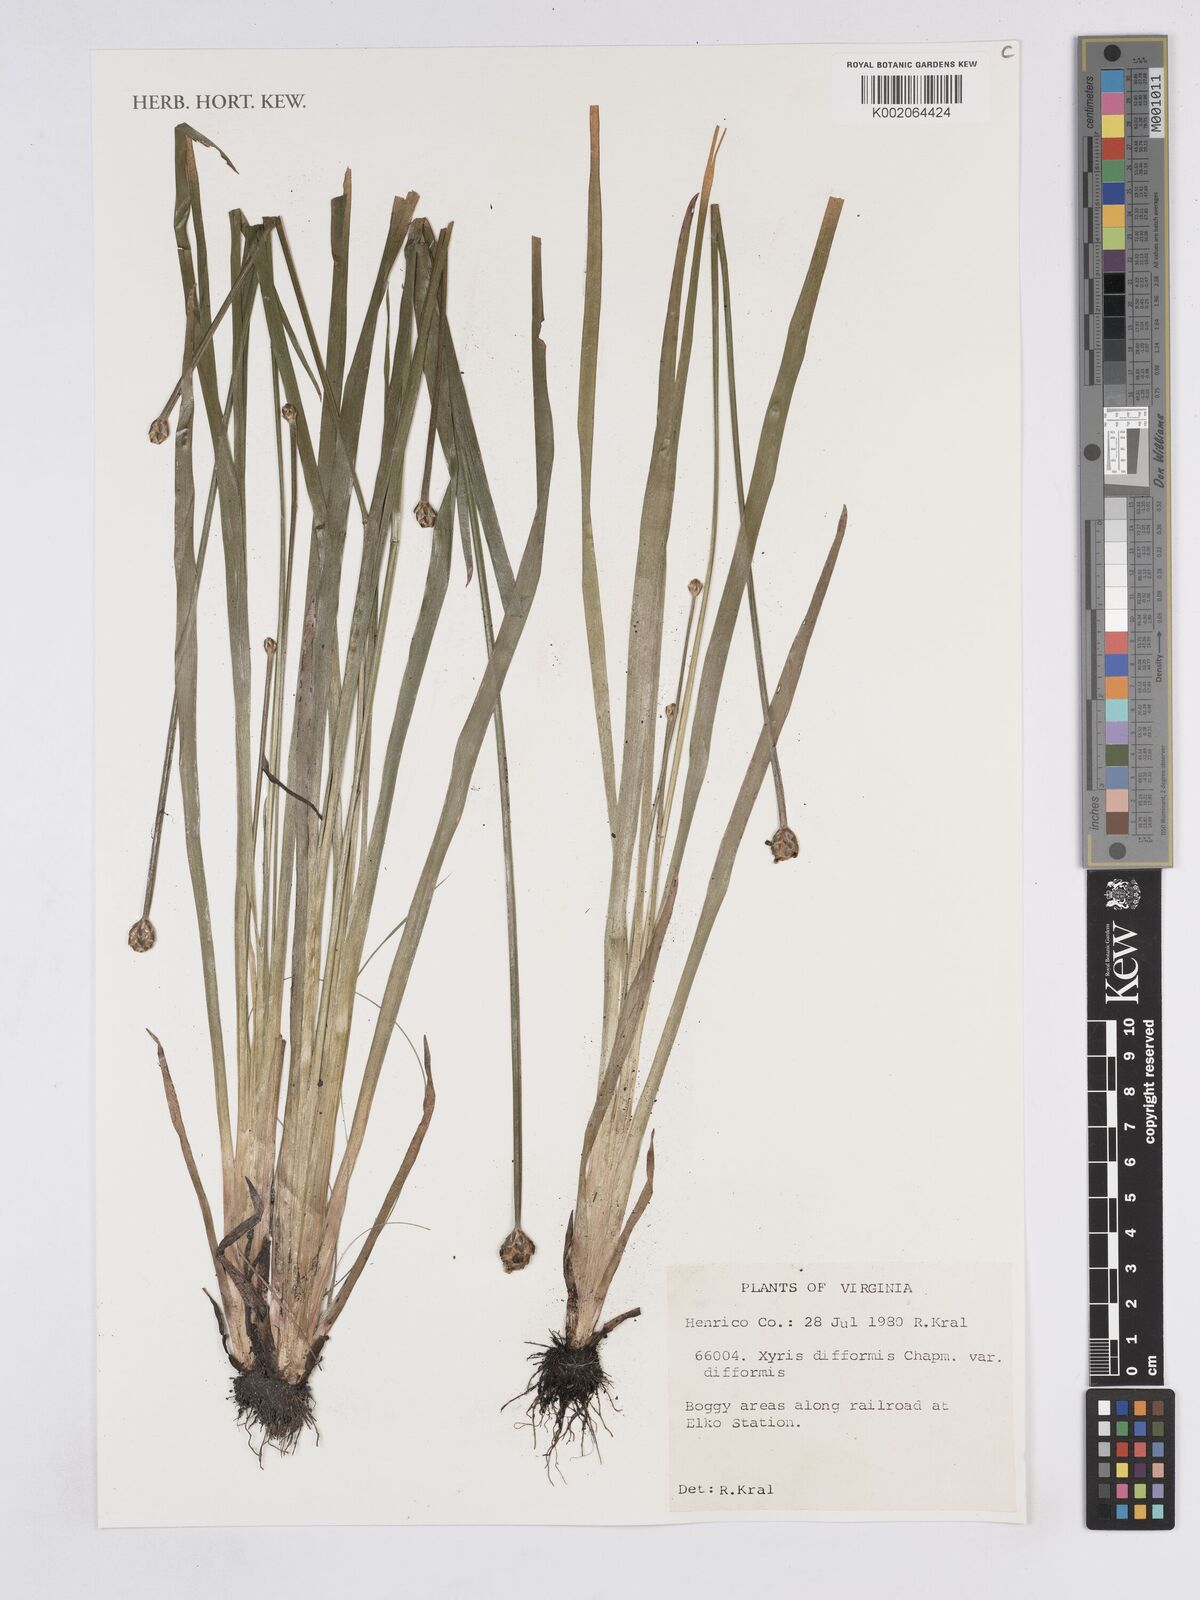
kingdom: Plantae
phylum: Tracheophyta
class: Liliopsida
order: Poales
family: Xyridaceae
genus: Xyris
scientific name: Xyris difformis
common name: Bog yellow-eyed-grass
